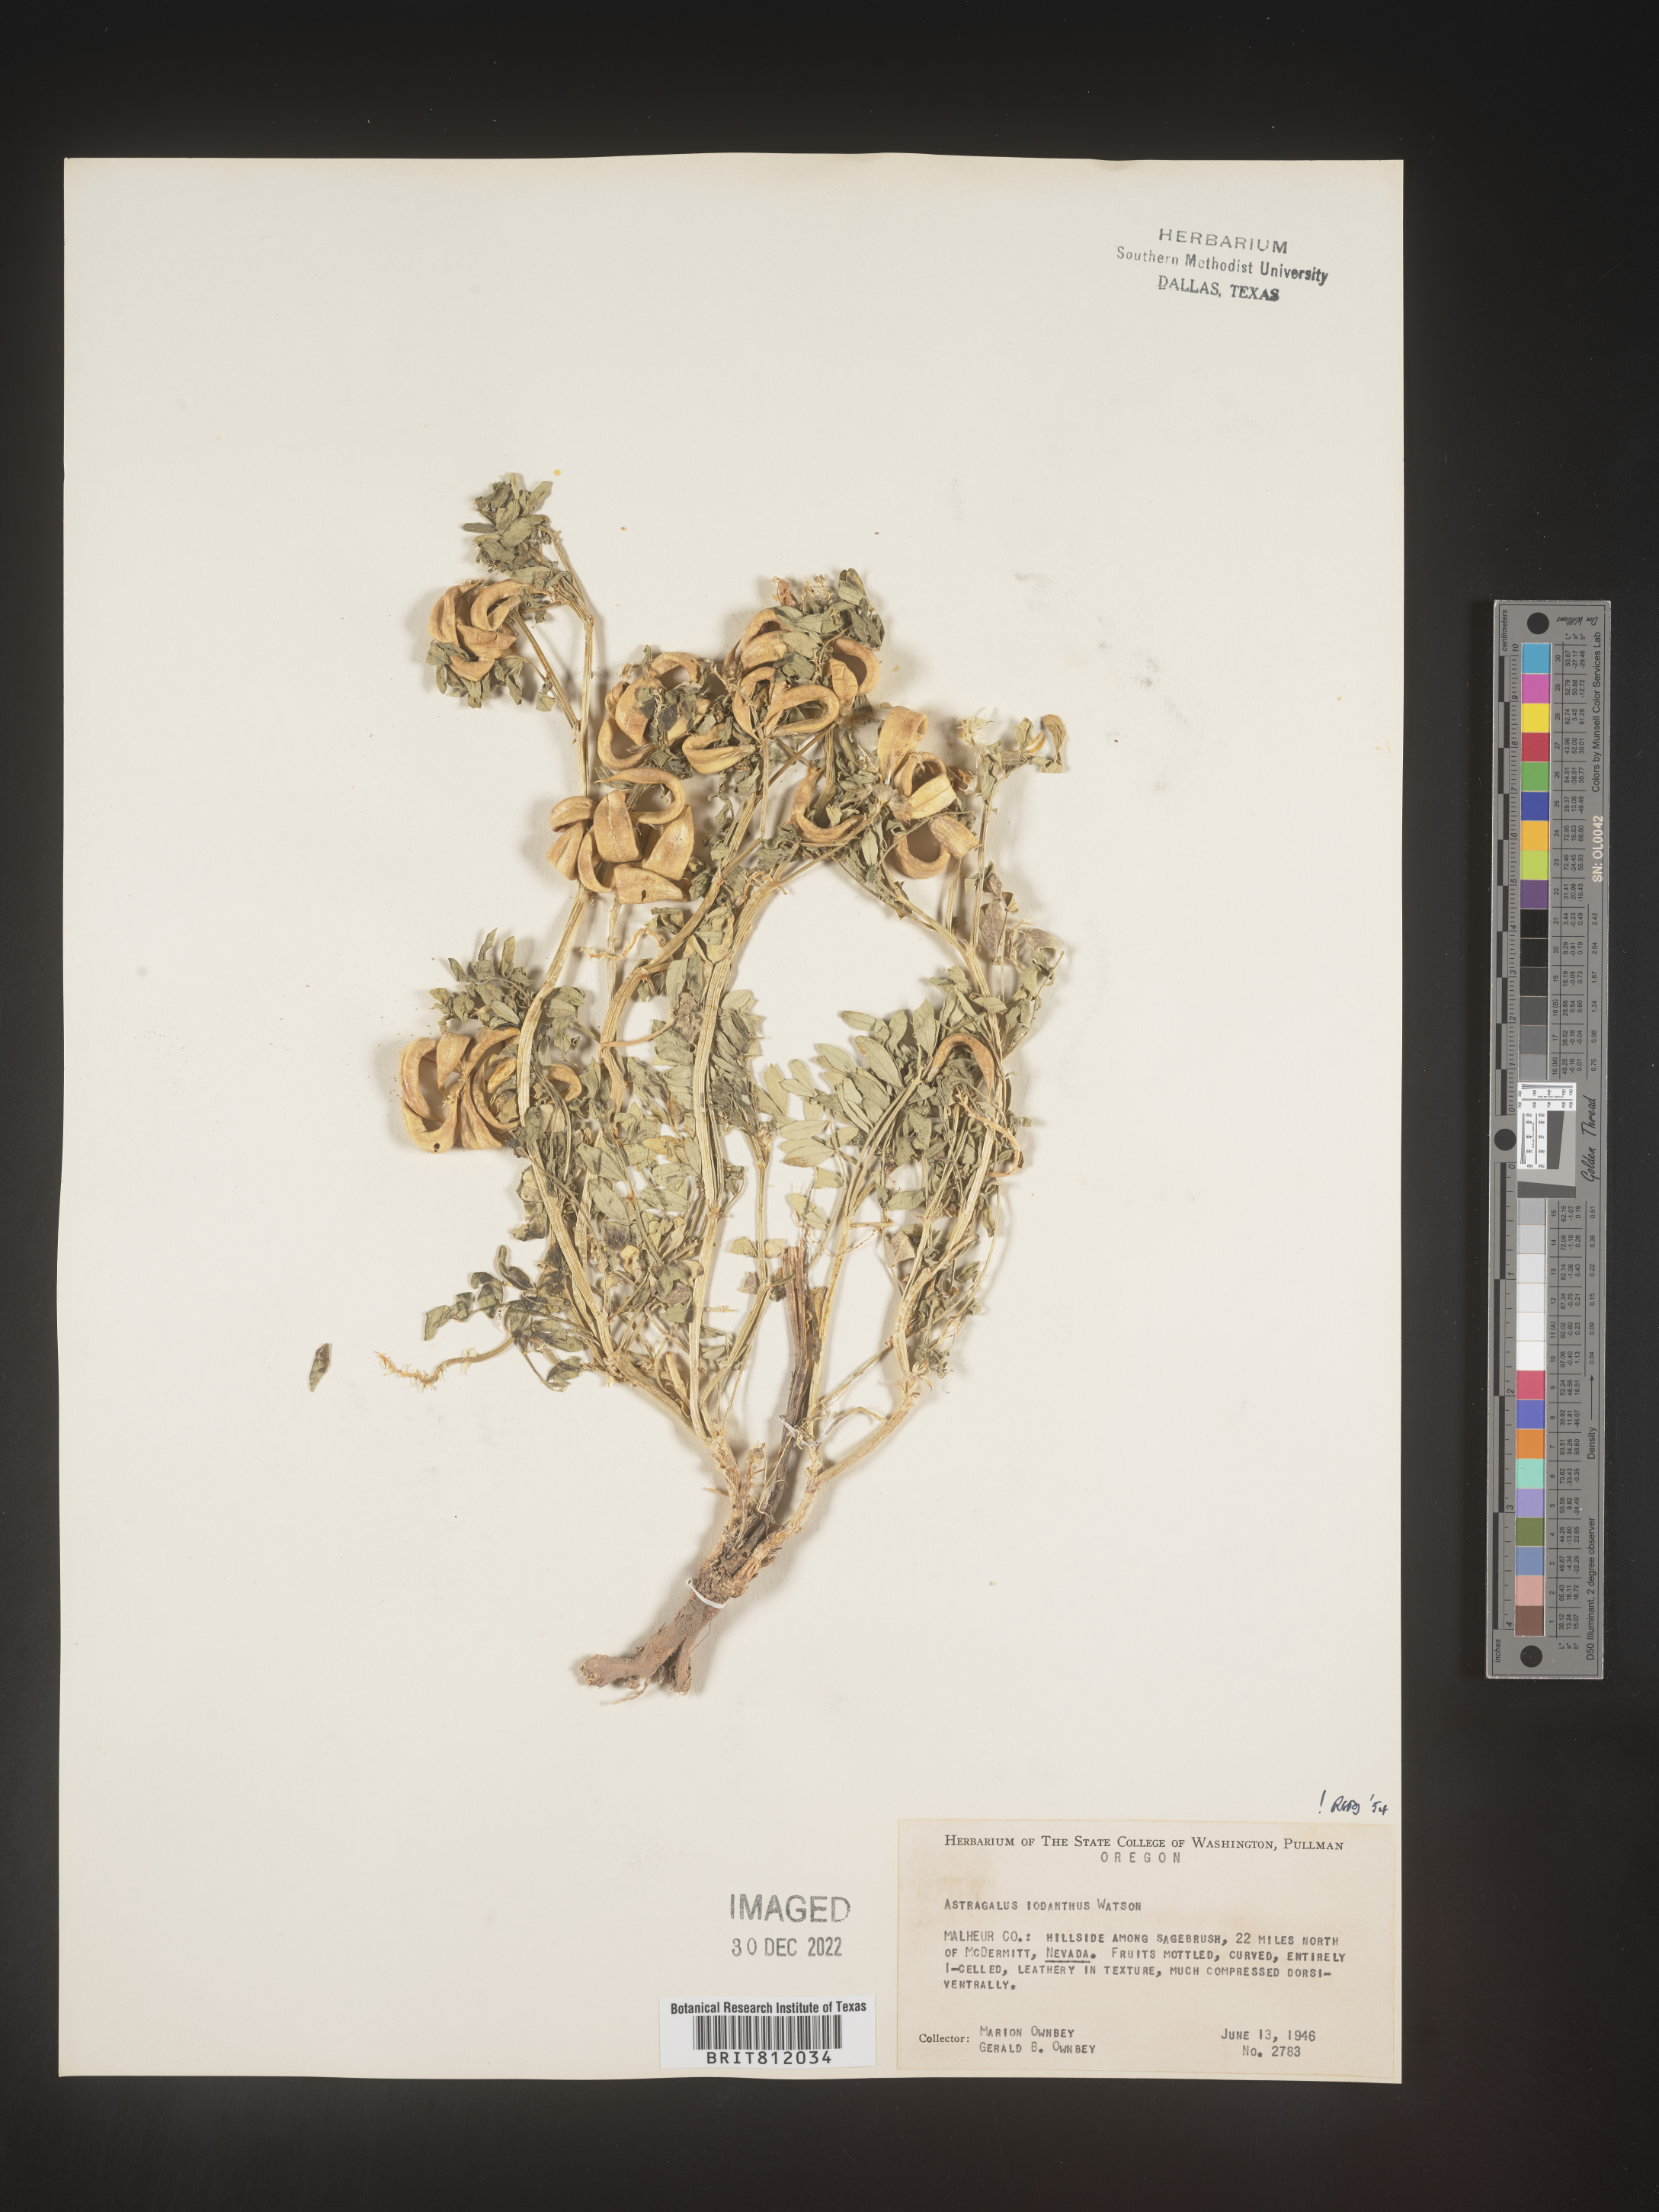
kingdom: Plantae
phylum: Tracheophyta
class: Magnoliopsida
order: Fabales
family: Fabaceae
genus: Astragalus
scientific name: Astragalus lentiginosus
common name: Freckled milkvetch
